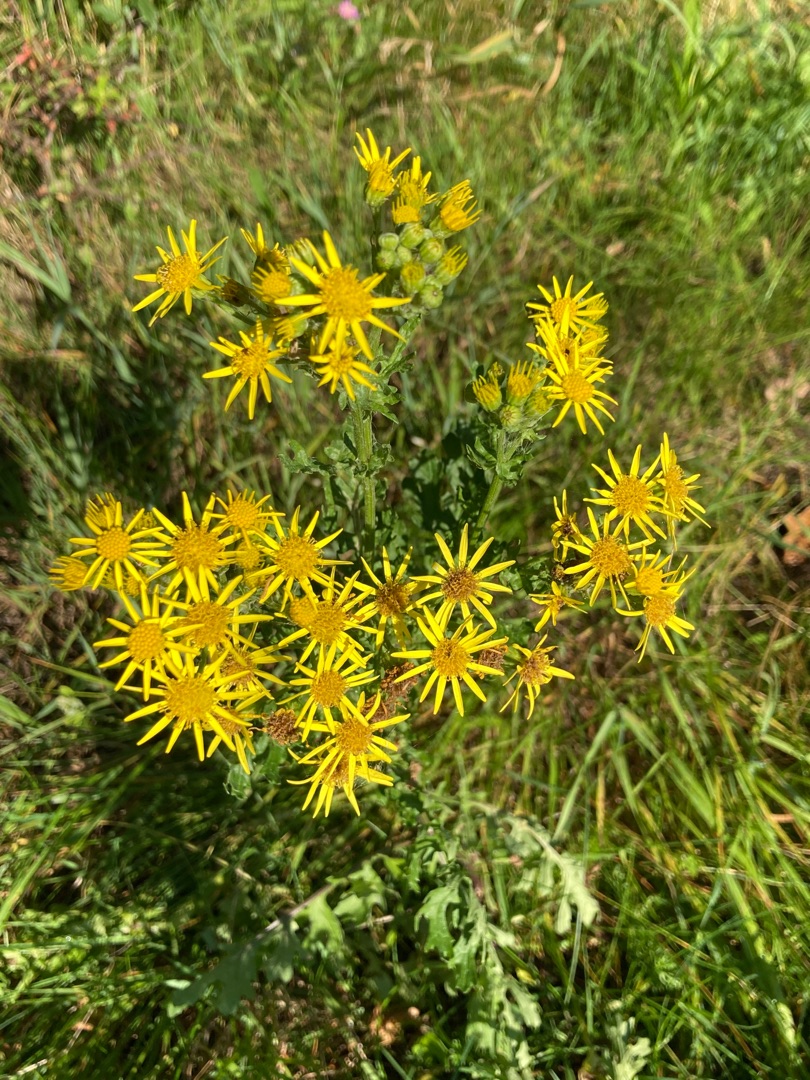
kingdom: Plantae
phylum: Tracheophyta
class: Magnoliopsida
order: Asterales
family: Asteraceae
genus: Jacobaea
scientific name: Jacobaea vulgaris
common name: Eng-brandbæger
